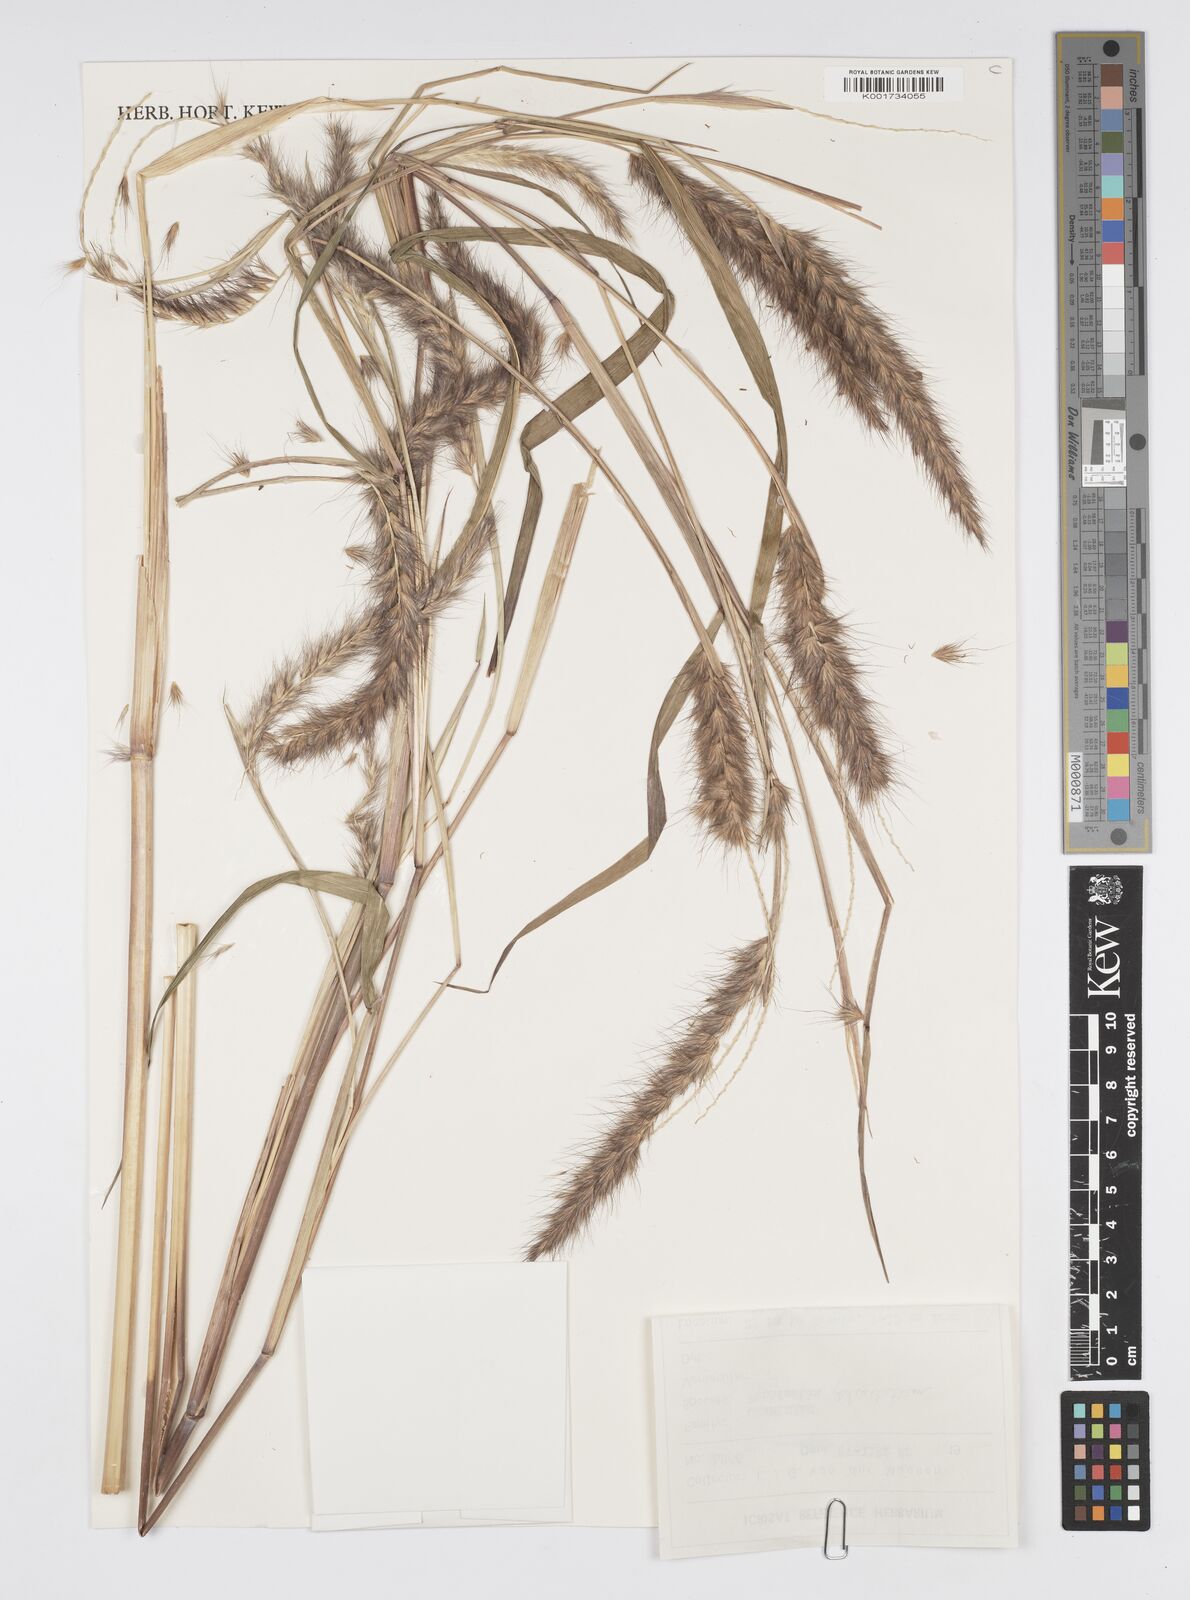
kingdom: Plantae
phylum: Tracheophyta
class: Liliopsida
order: Poales
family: Poaceae
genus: Cenchrus
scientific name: Cenchrus pedicellatus
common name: Hairy fountain grass
